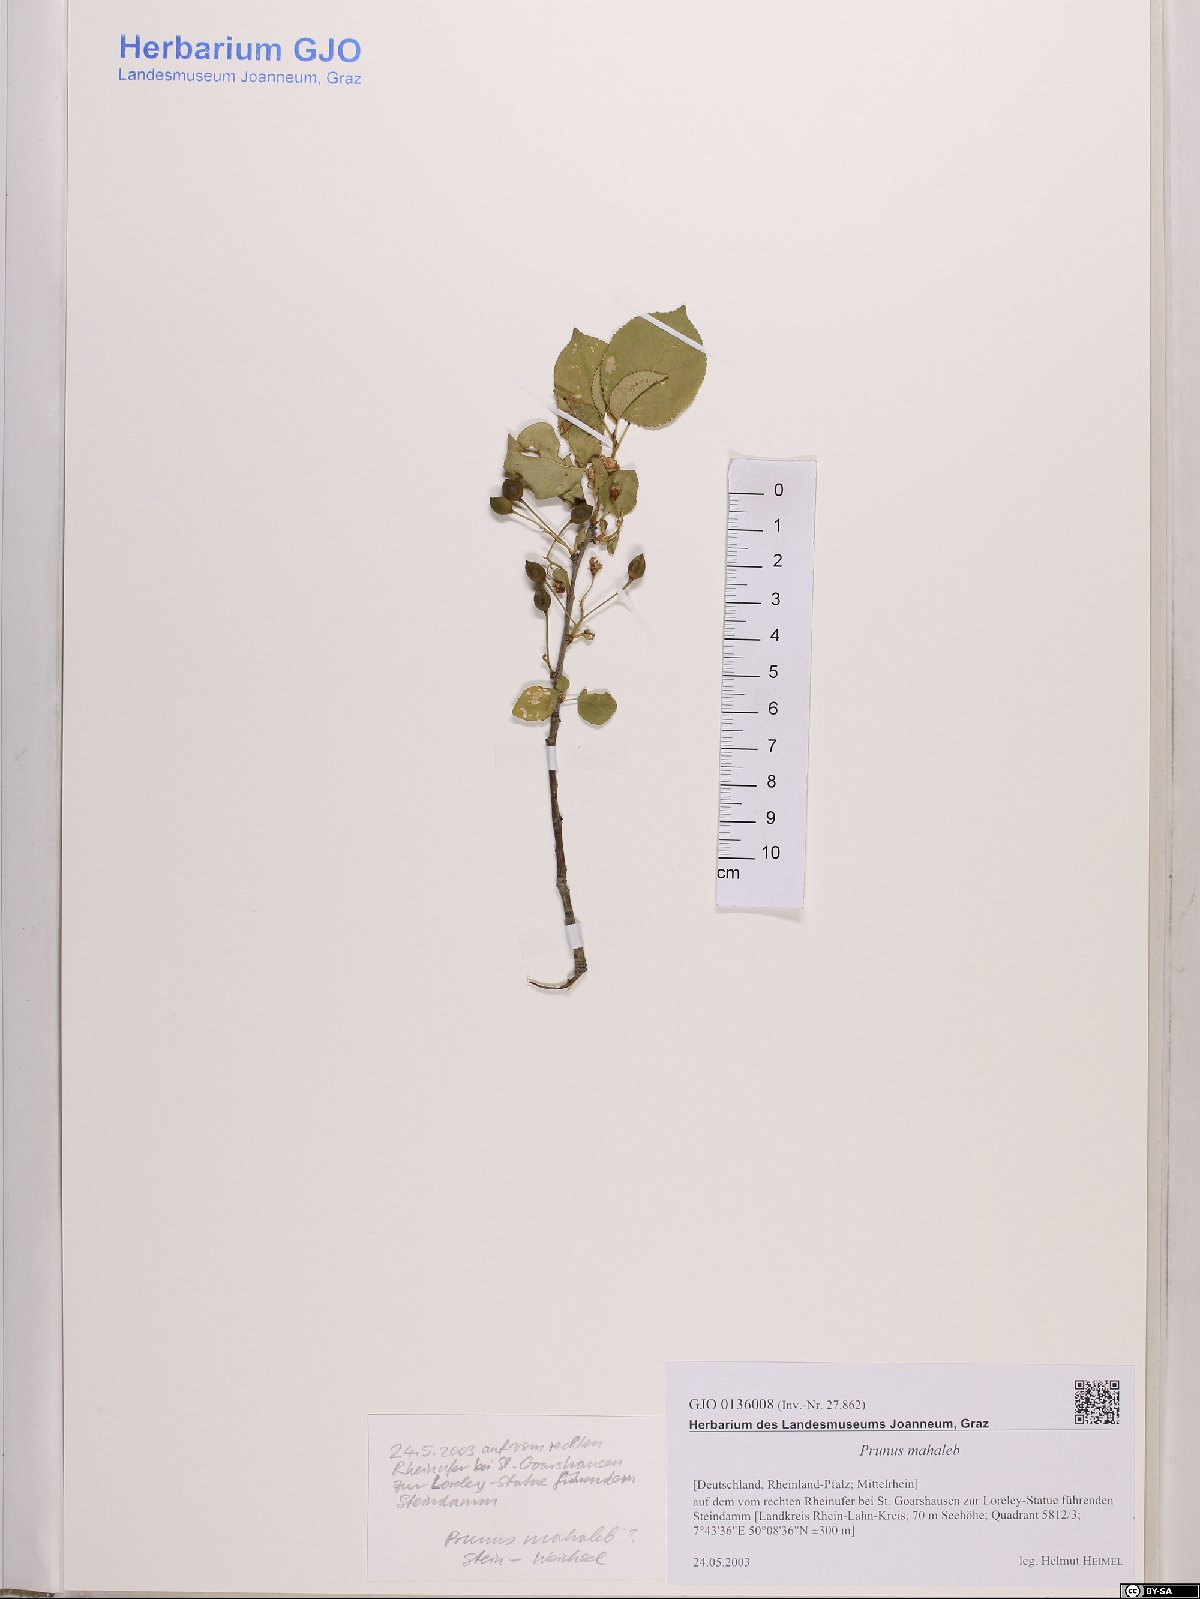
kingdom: Plantae
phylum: Tracheophyta
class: Magnoliopsida
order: Rosales
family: Rosaceae
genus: Prunus
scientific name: Prunus mahaleb
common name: Mahaleb cherry
